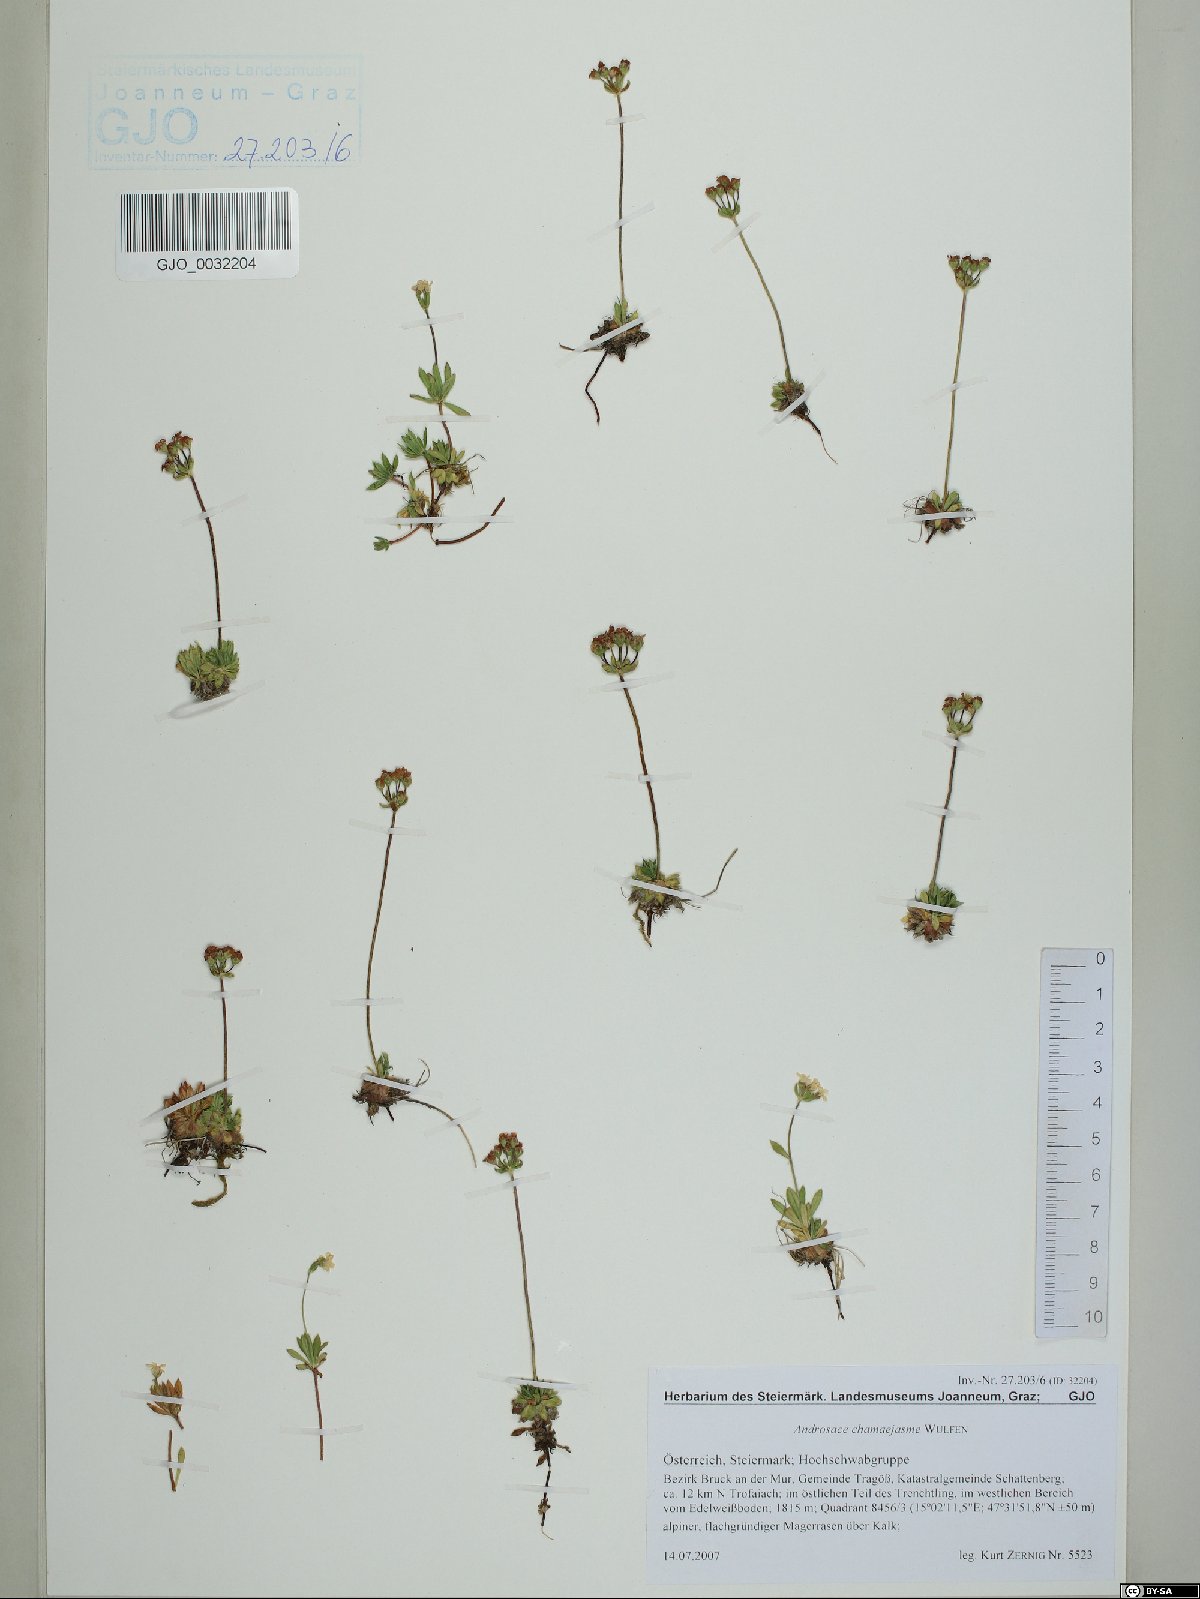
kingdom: Plantae
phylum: Tracheophyta
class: Magnoliopsida
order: Ericales
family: Primulaceae
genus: Androsace
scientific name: Androsace chamaejasme
